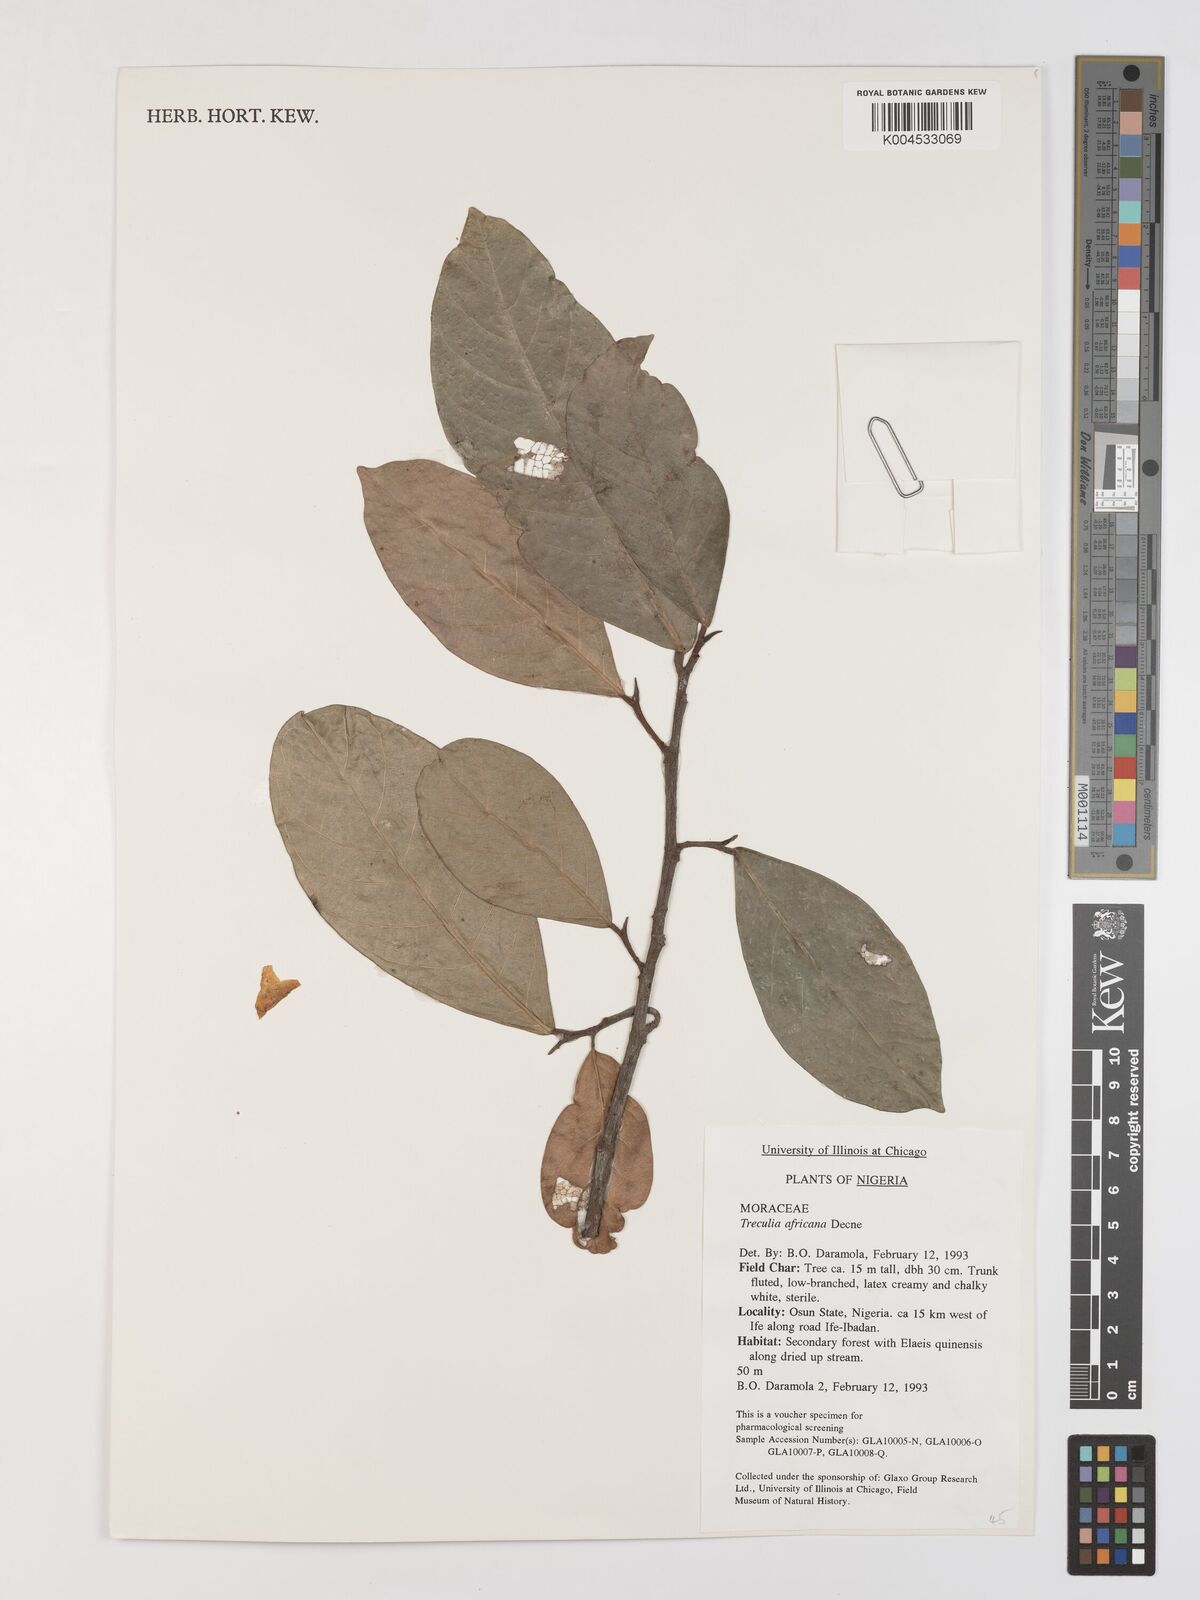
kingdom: Plantae
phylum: Tracheophyta
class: Magnoliopsida
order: Rosales
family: Moraceae
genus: Treculia
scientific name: Treculia africana
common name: African breadfruit
